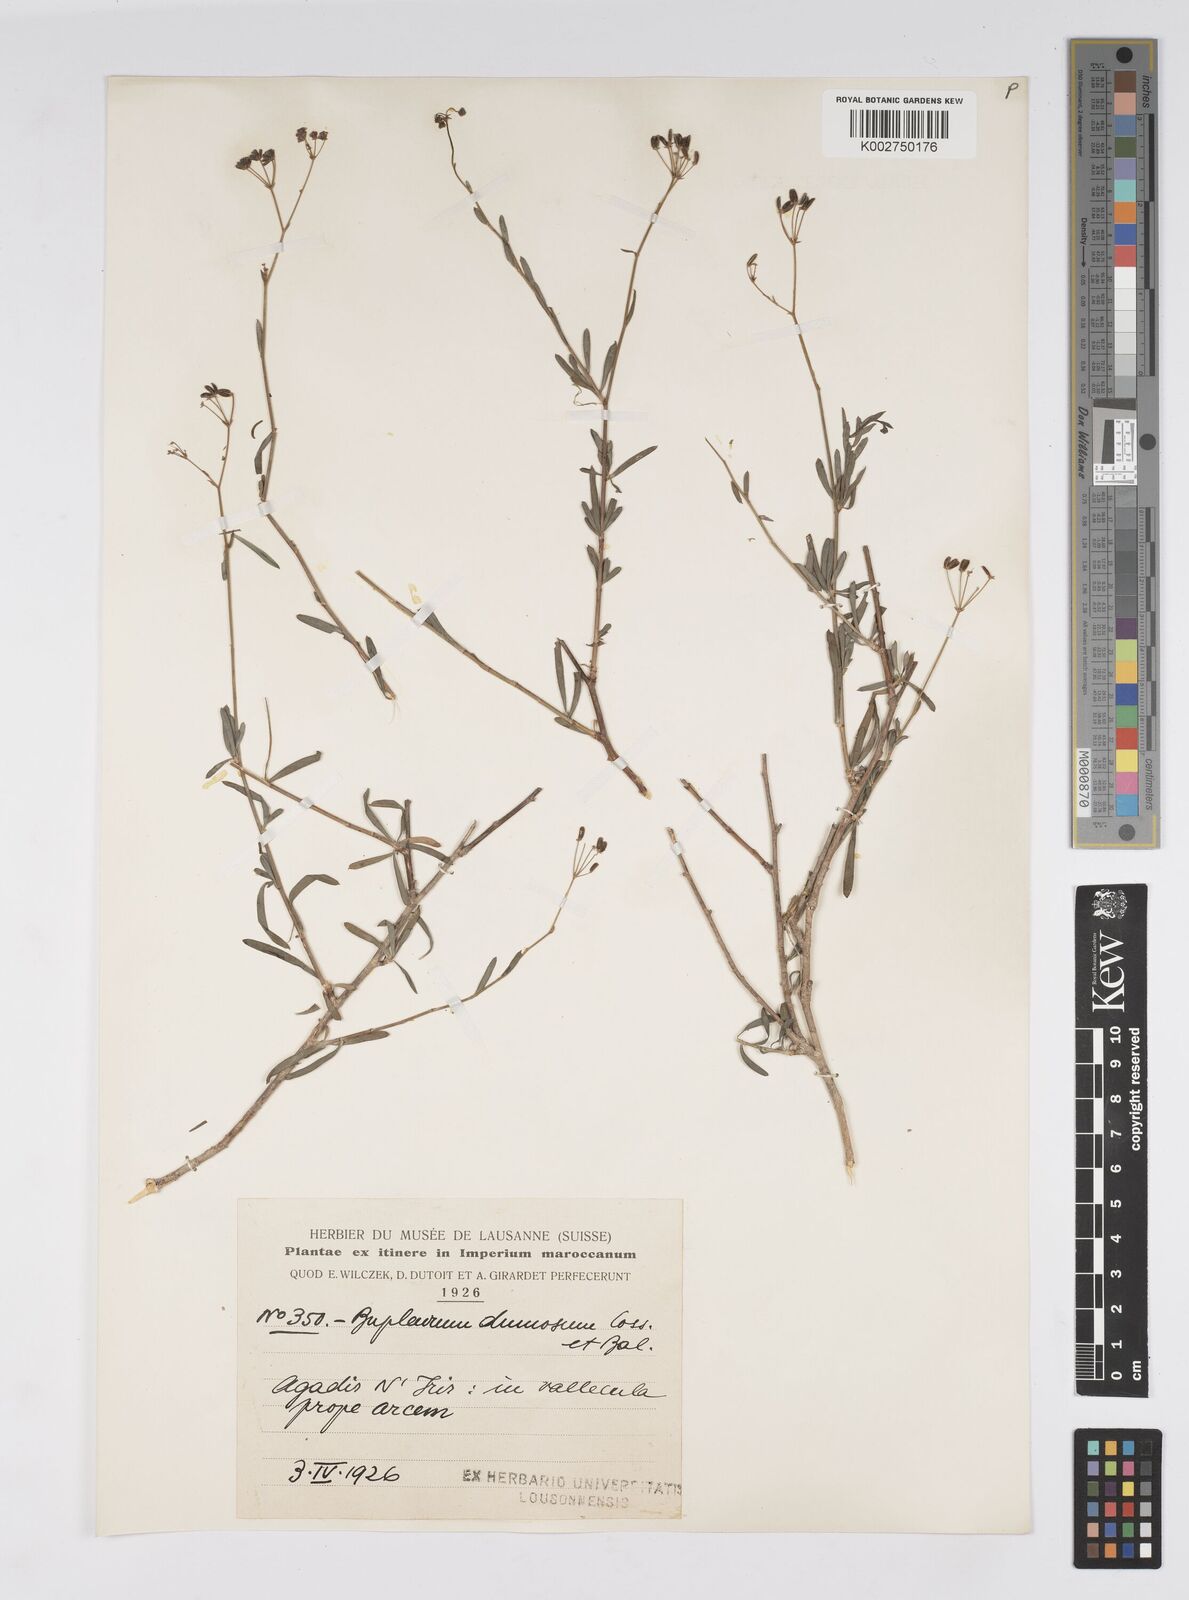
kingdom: Plantae
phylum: Tracheophyta
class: Magnoliopsida
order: Apiales
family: Apiaceae
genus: Bupleurum
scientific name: Bupleurum dumosum
